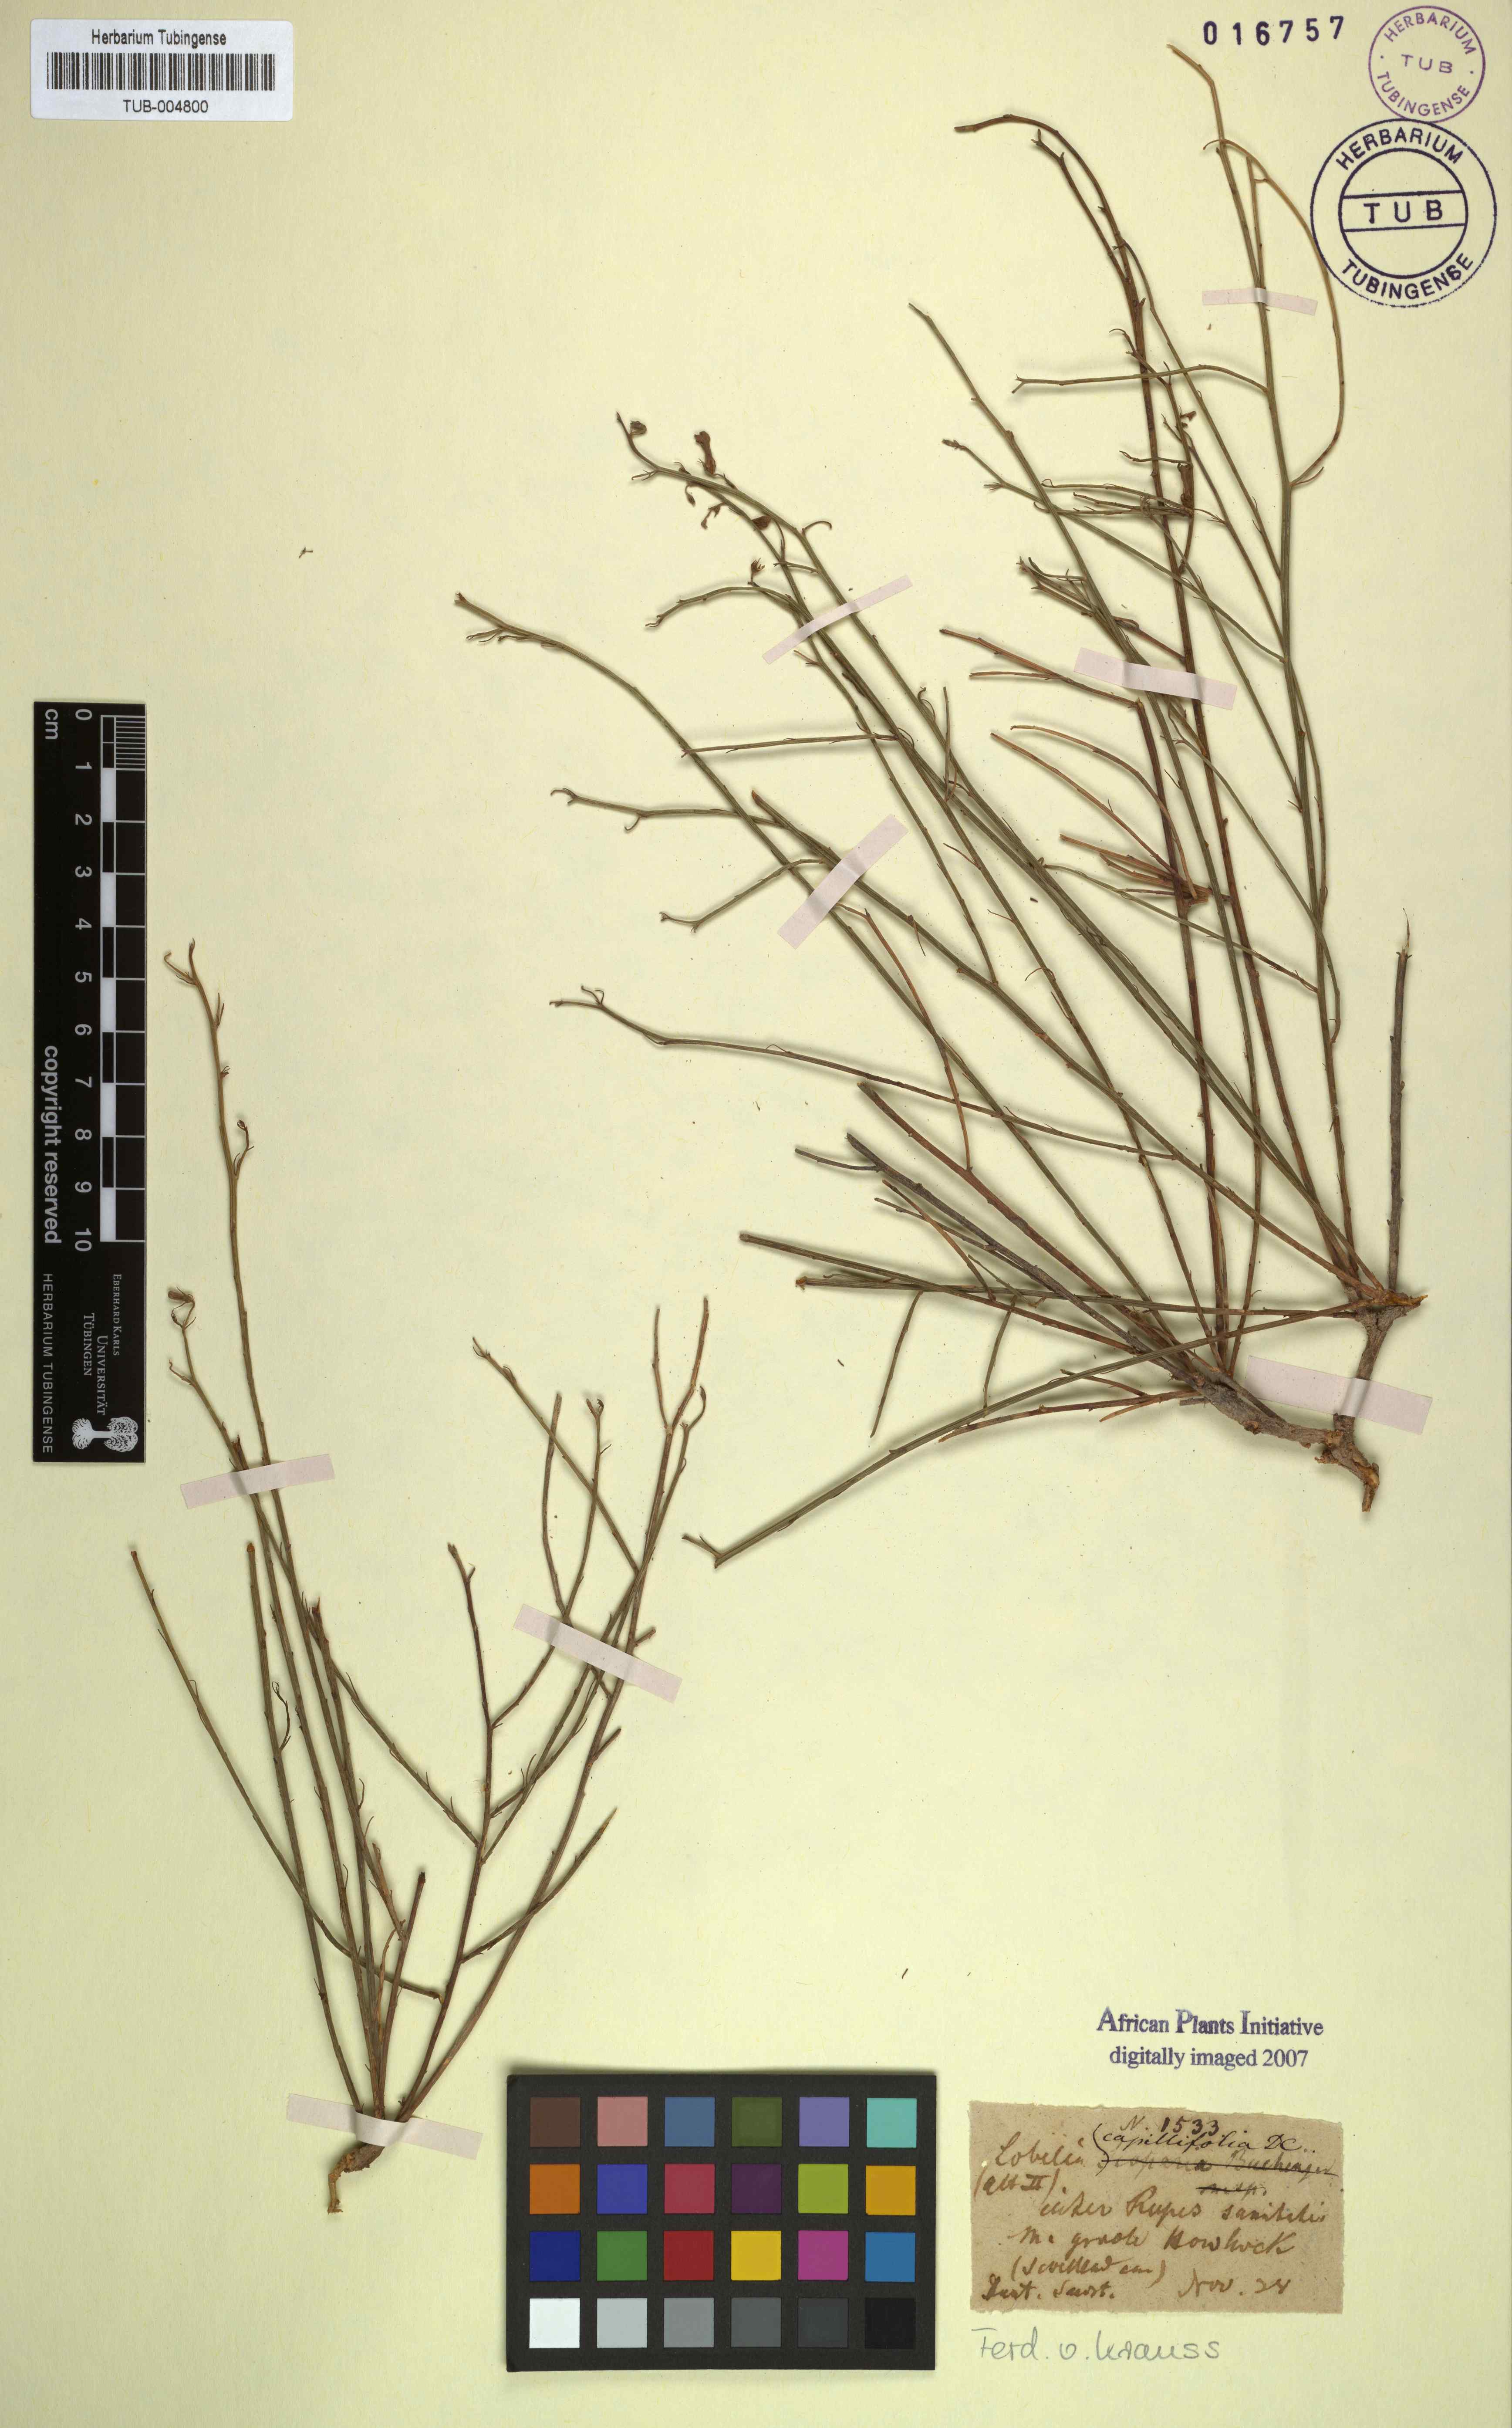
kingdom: Plantae
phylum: Tracheophyta
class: Magnoliopsida
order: Asterales
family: Campanulaceae
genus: Lobelia
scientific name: Lobelia capillifolia
